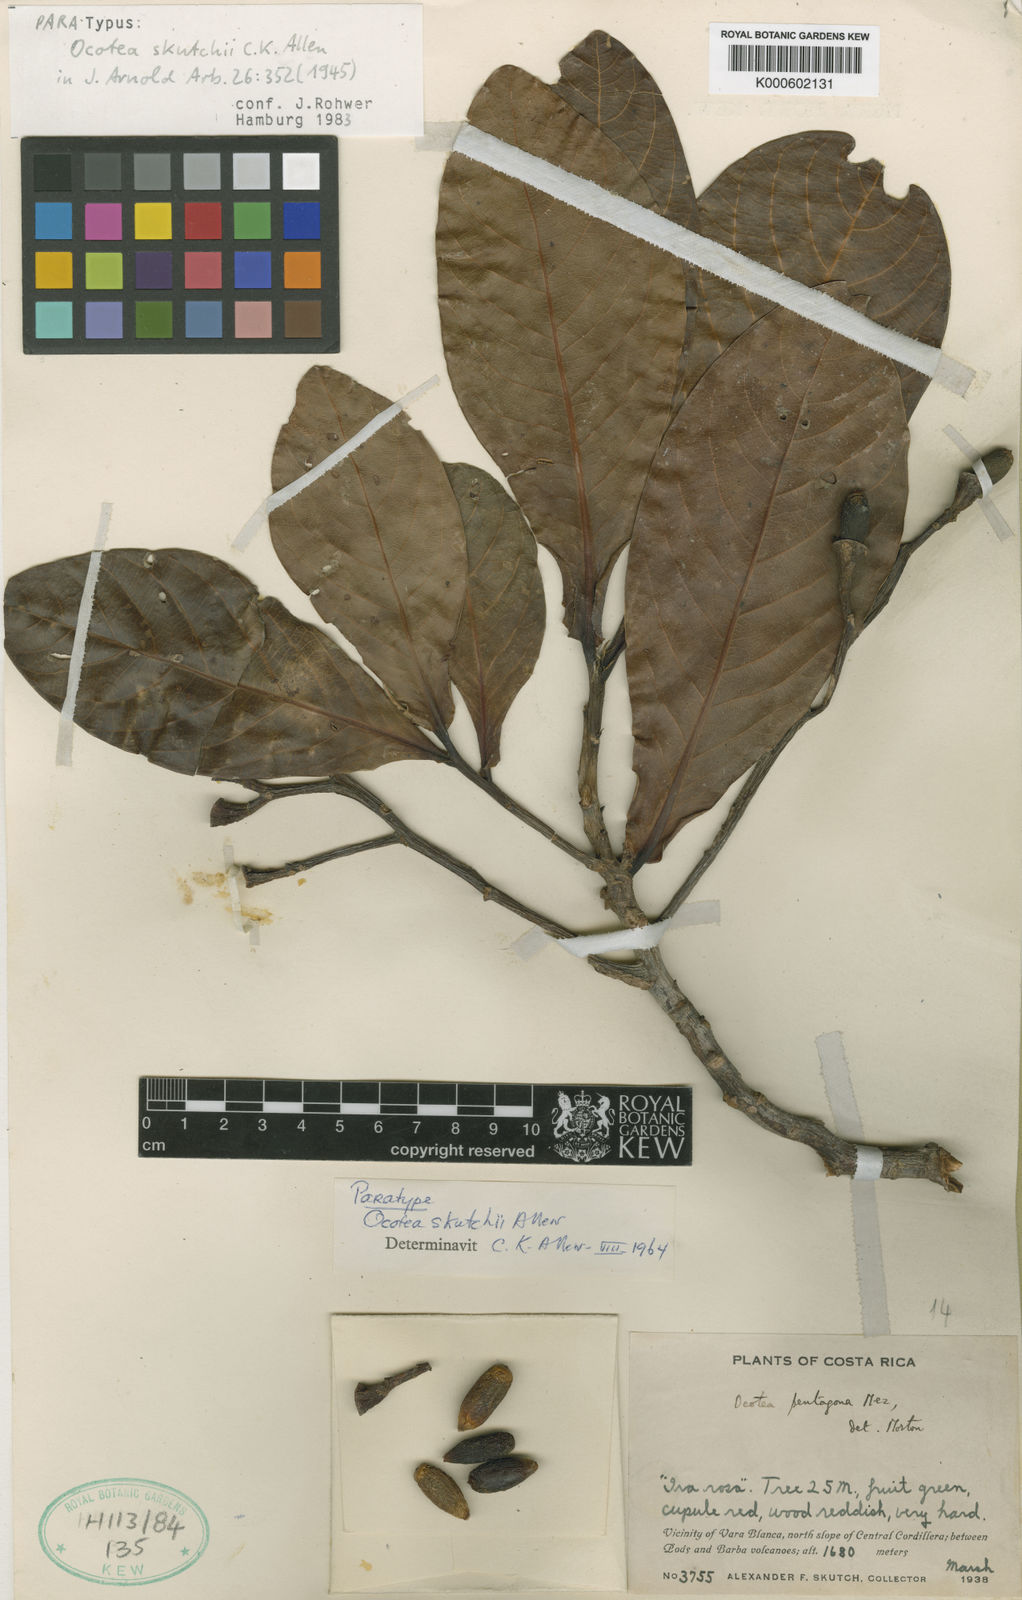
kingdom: Plantae
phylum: Tracheophyta
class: Magnoliopsida
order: Laurales
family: Lauraceae
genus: Ocotea
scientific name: Ocotea whitei
